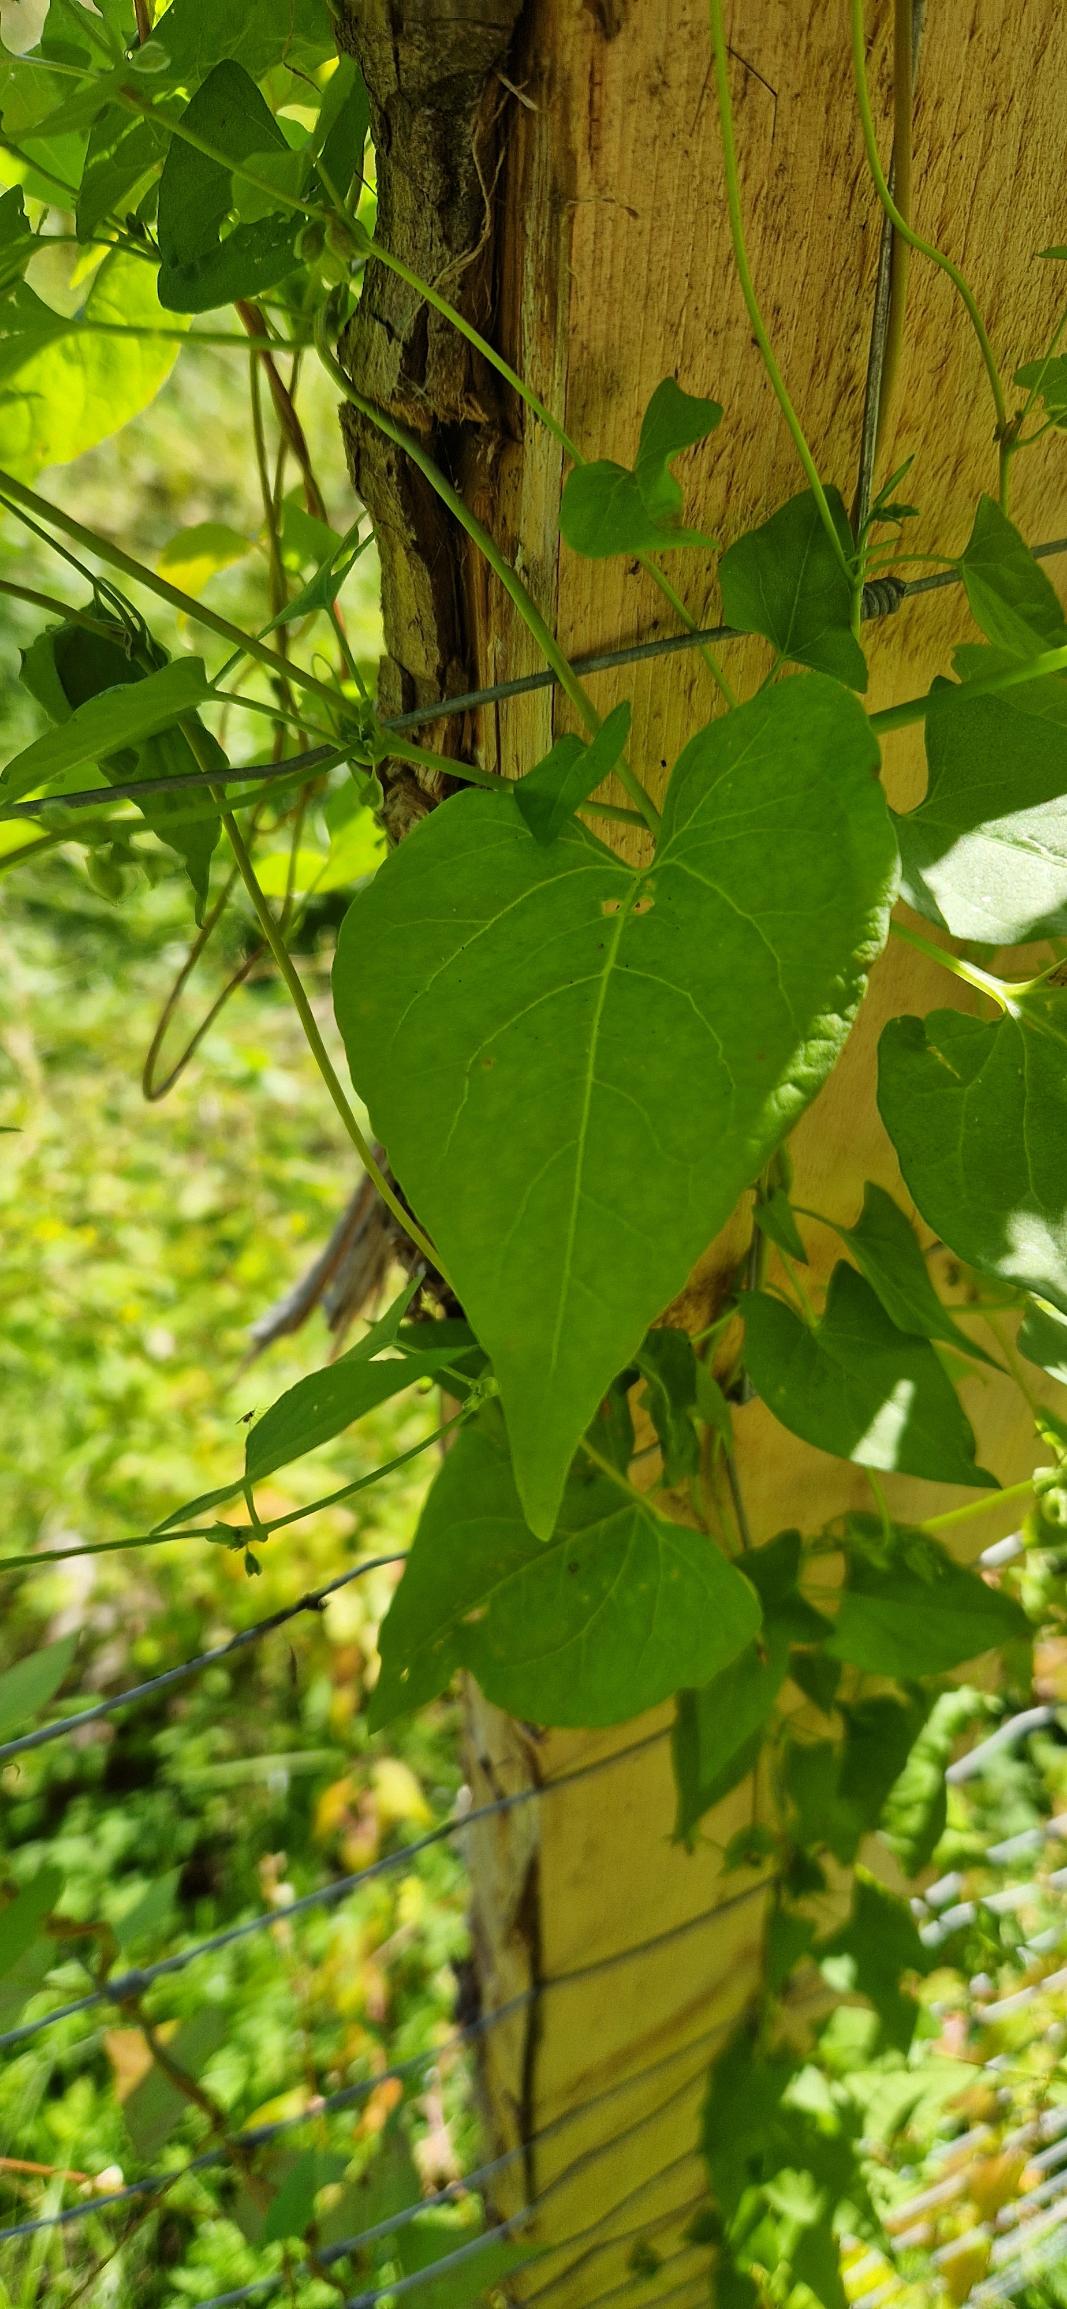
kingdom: Plantae
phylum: Tracheophyta
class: Magnoliopsida
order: Caryophyllales
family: Polygonaceae
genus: Fallopia
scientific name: Fallopia dumetorum
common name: Vinge-pileurt
